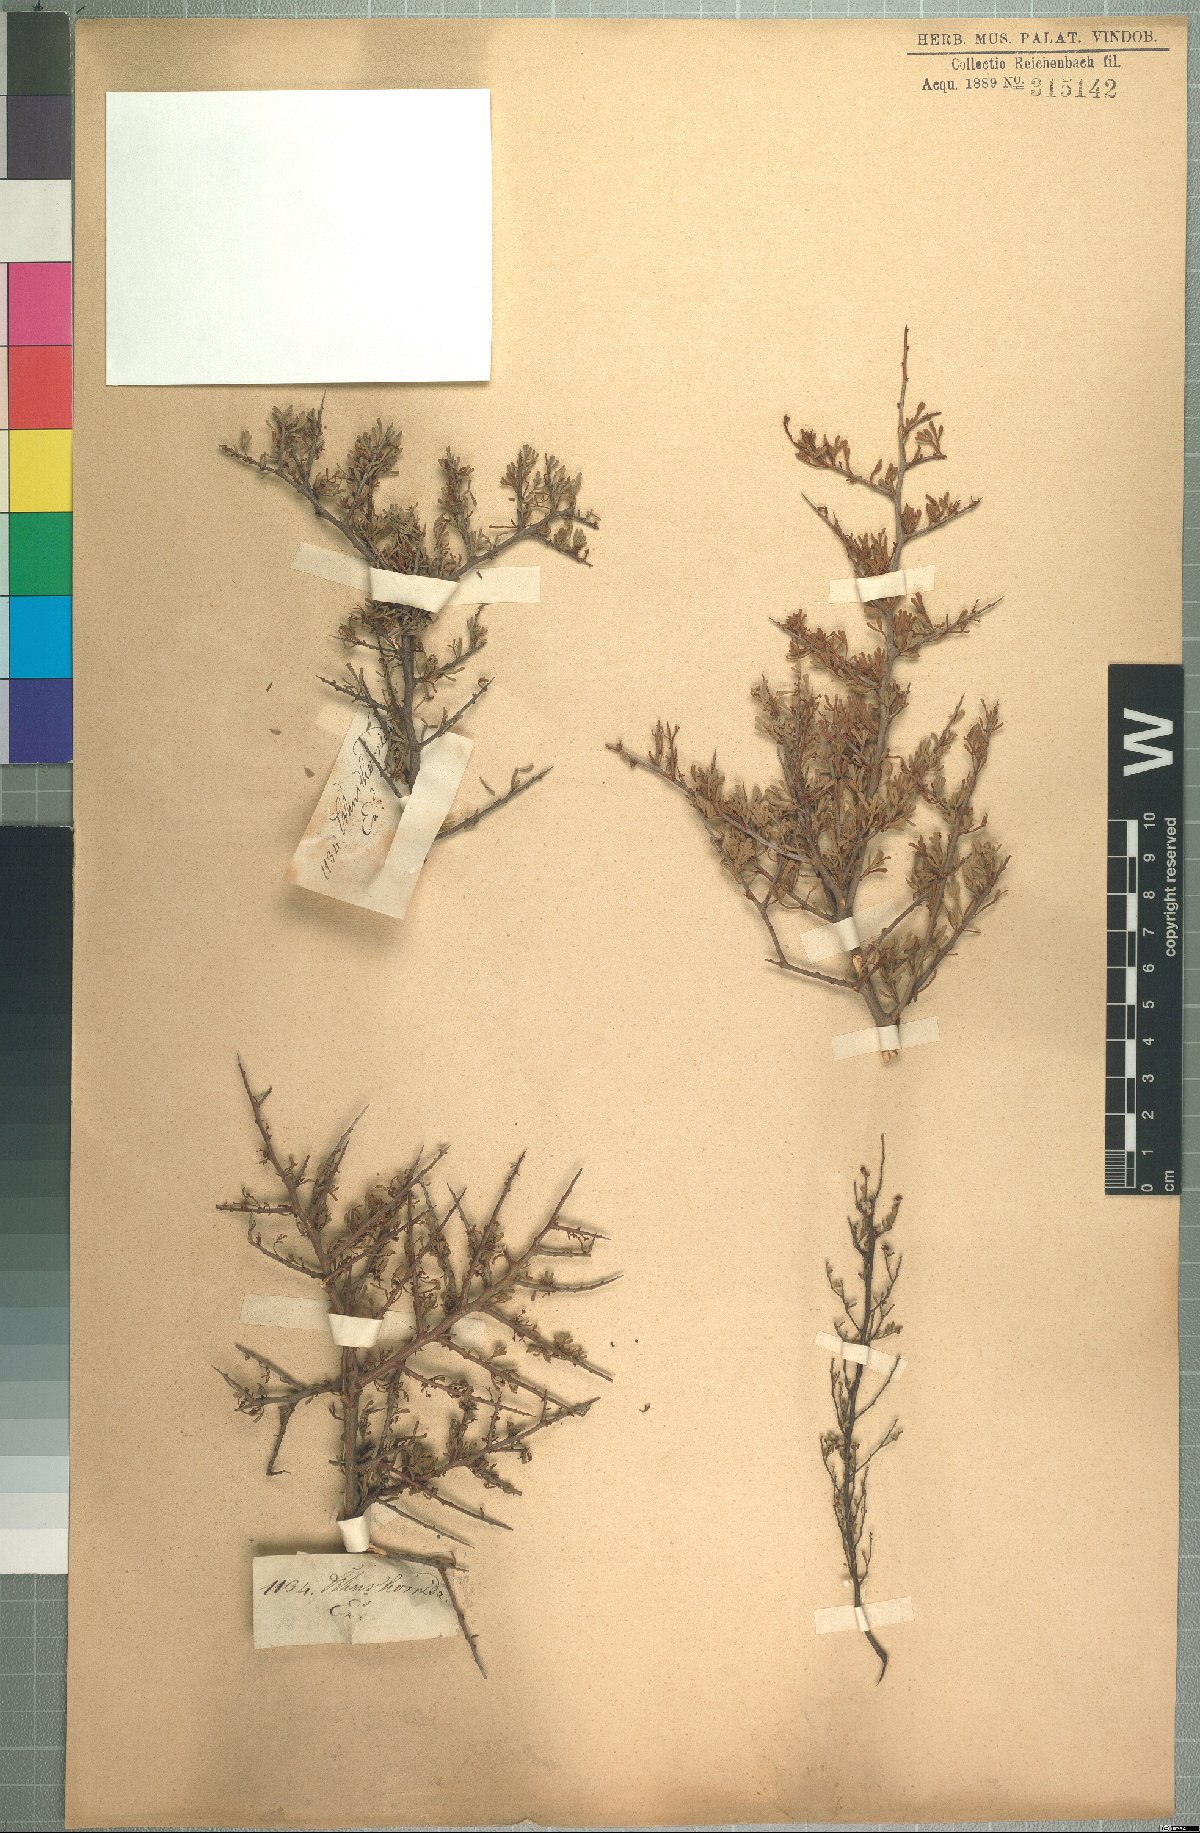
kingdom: Plantae
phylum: Tracheophyta
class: Magnoliopsida
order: Sapindales
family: Anacardiaceae
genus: Searsia
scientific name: Searsia rimosa
